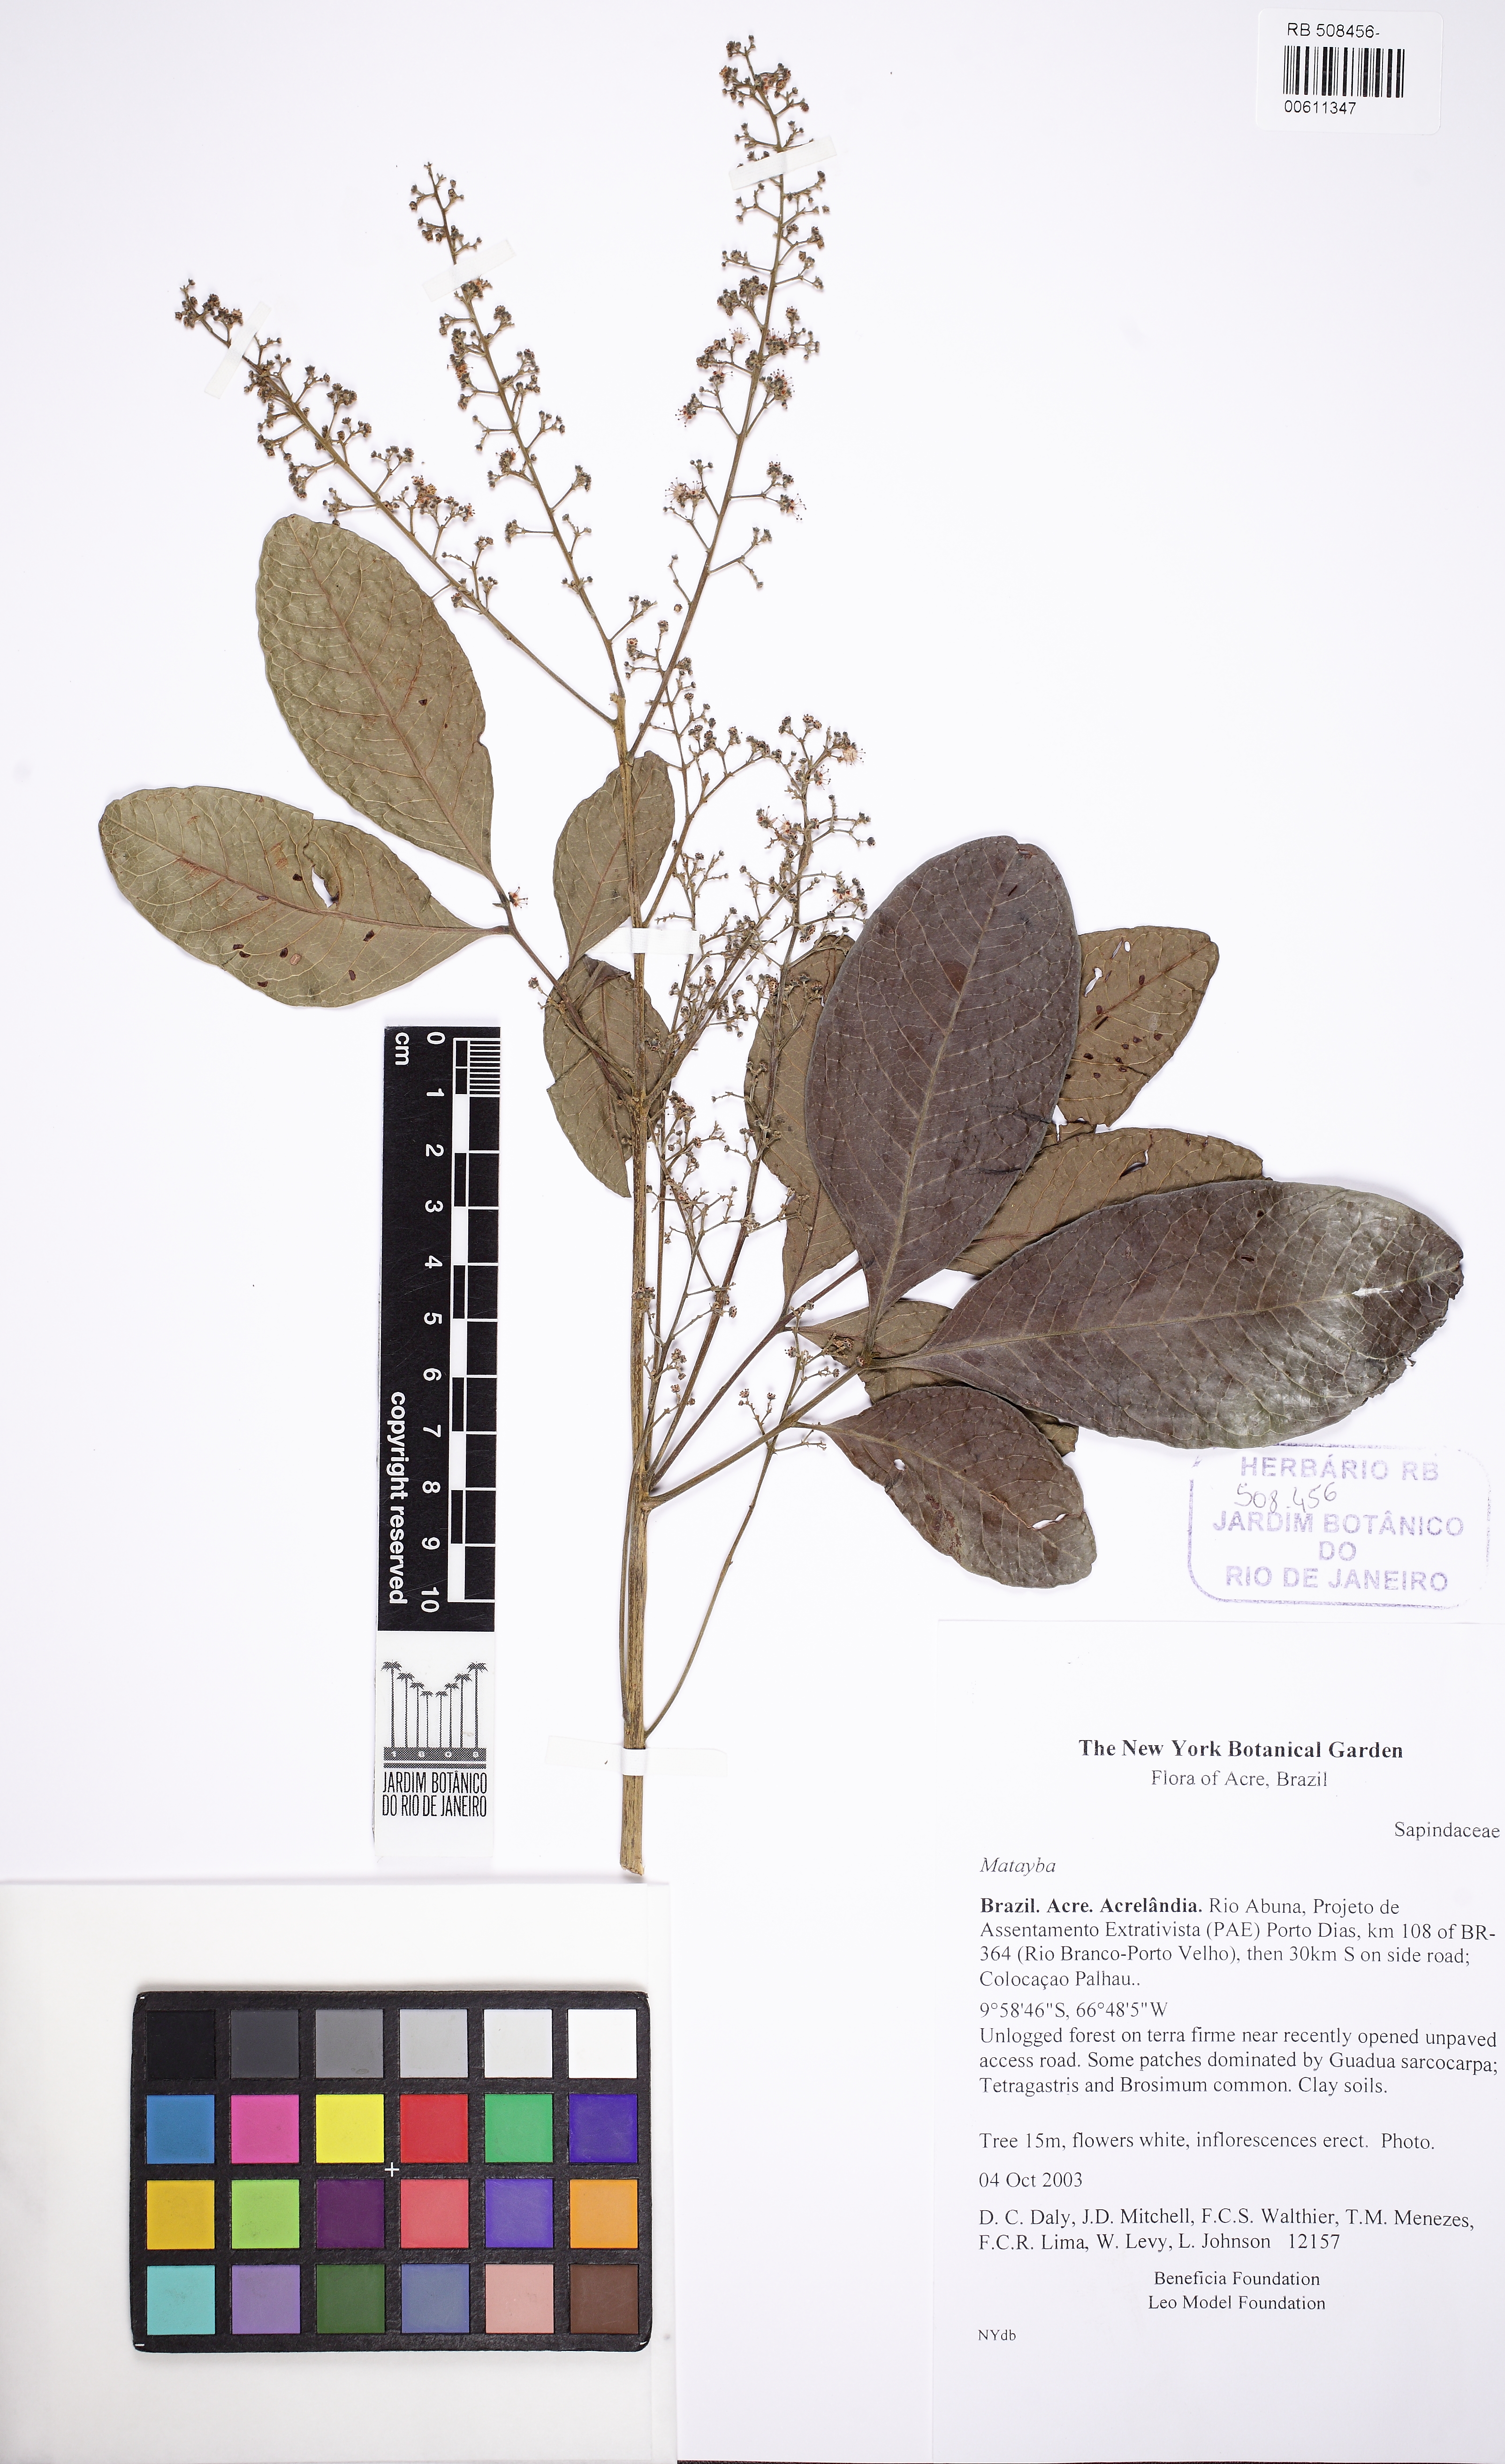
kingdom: Plantae
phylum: Tracheophyta
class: Magnoliopsida
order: Sapindales
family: Sapindaceae
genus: Matayba
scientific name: Matayba discolor
